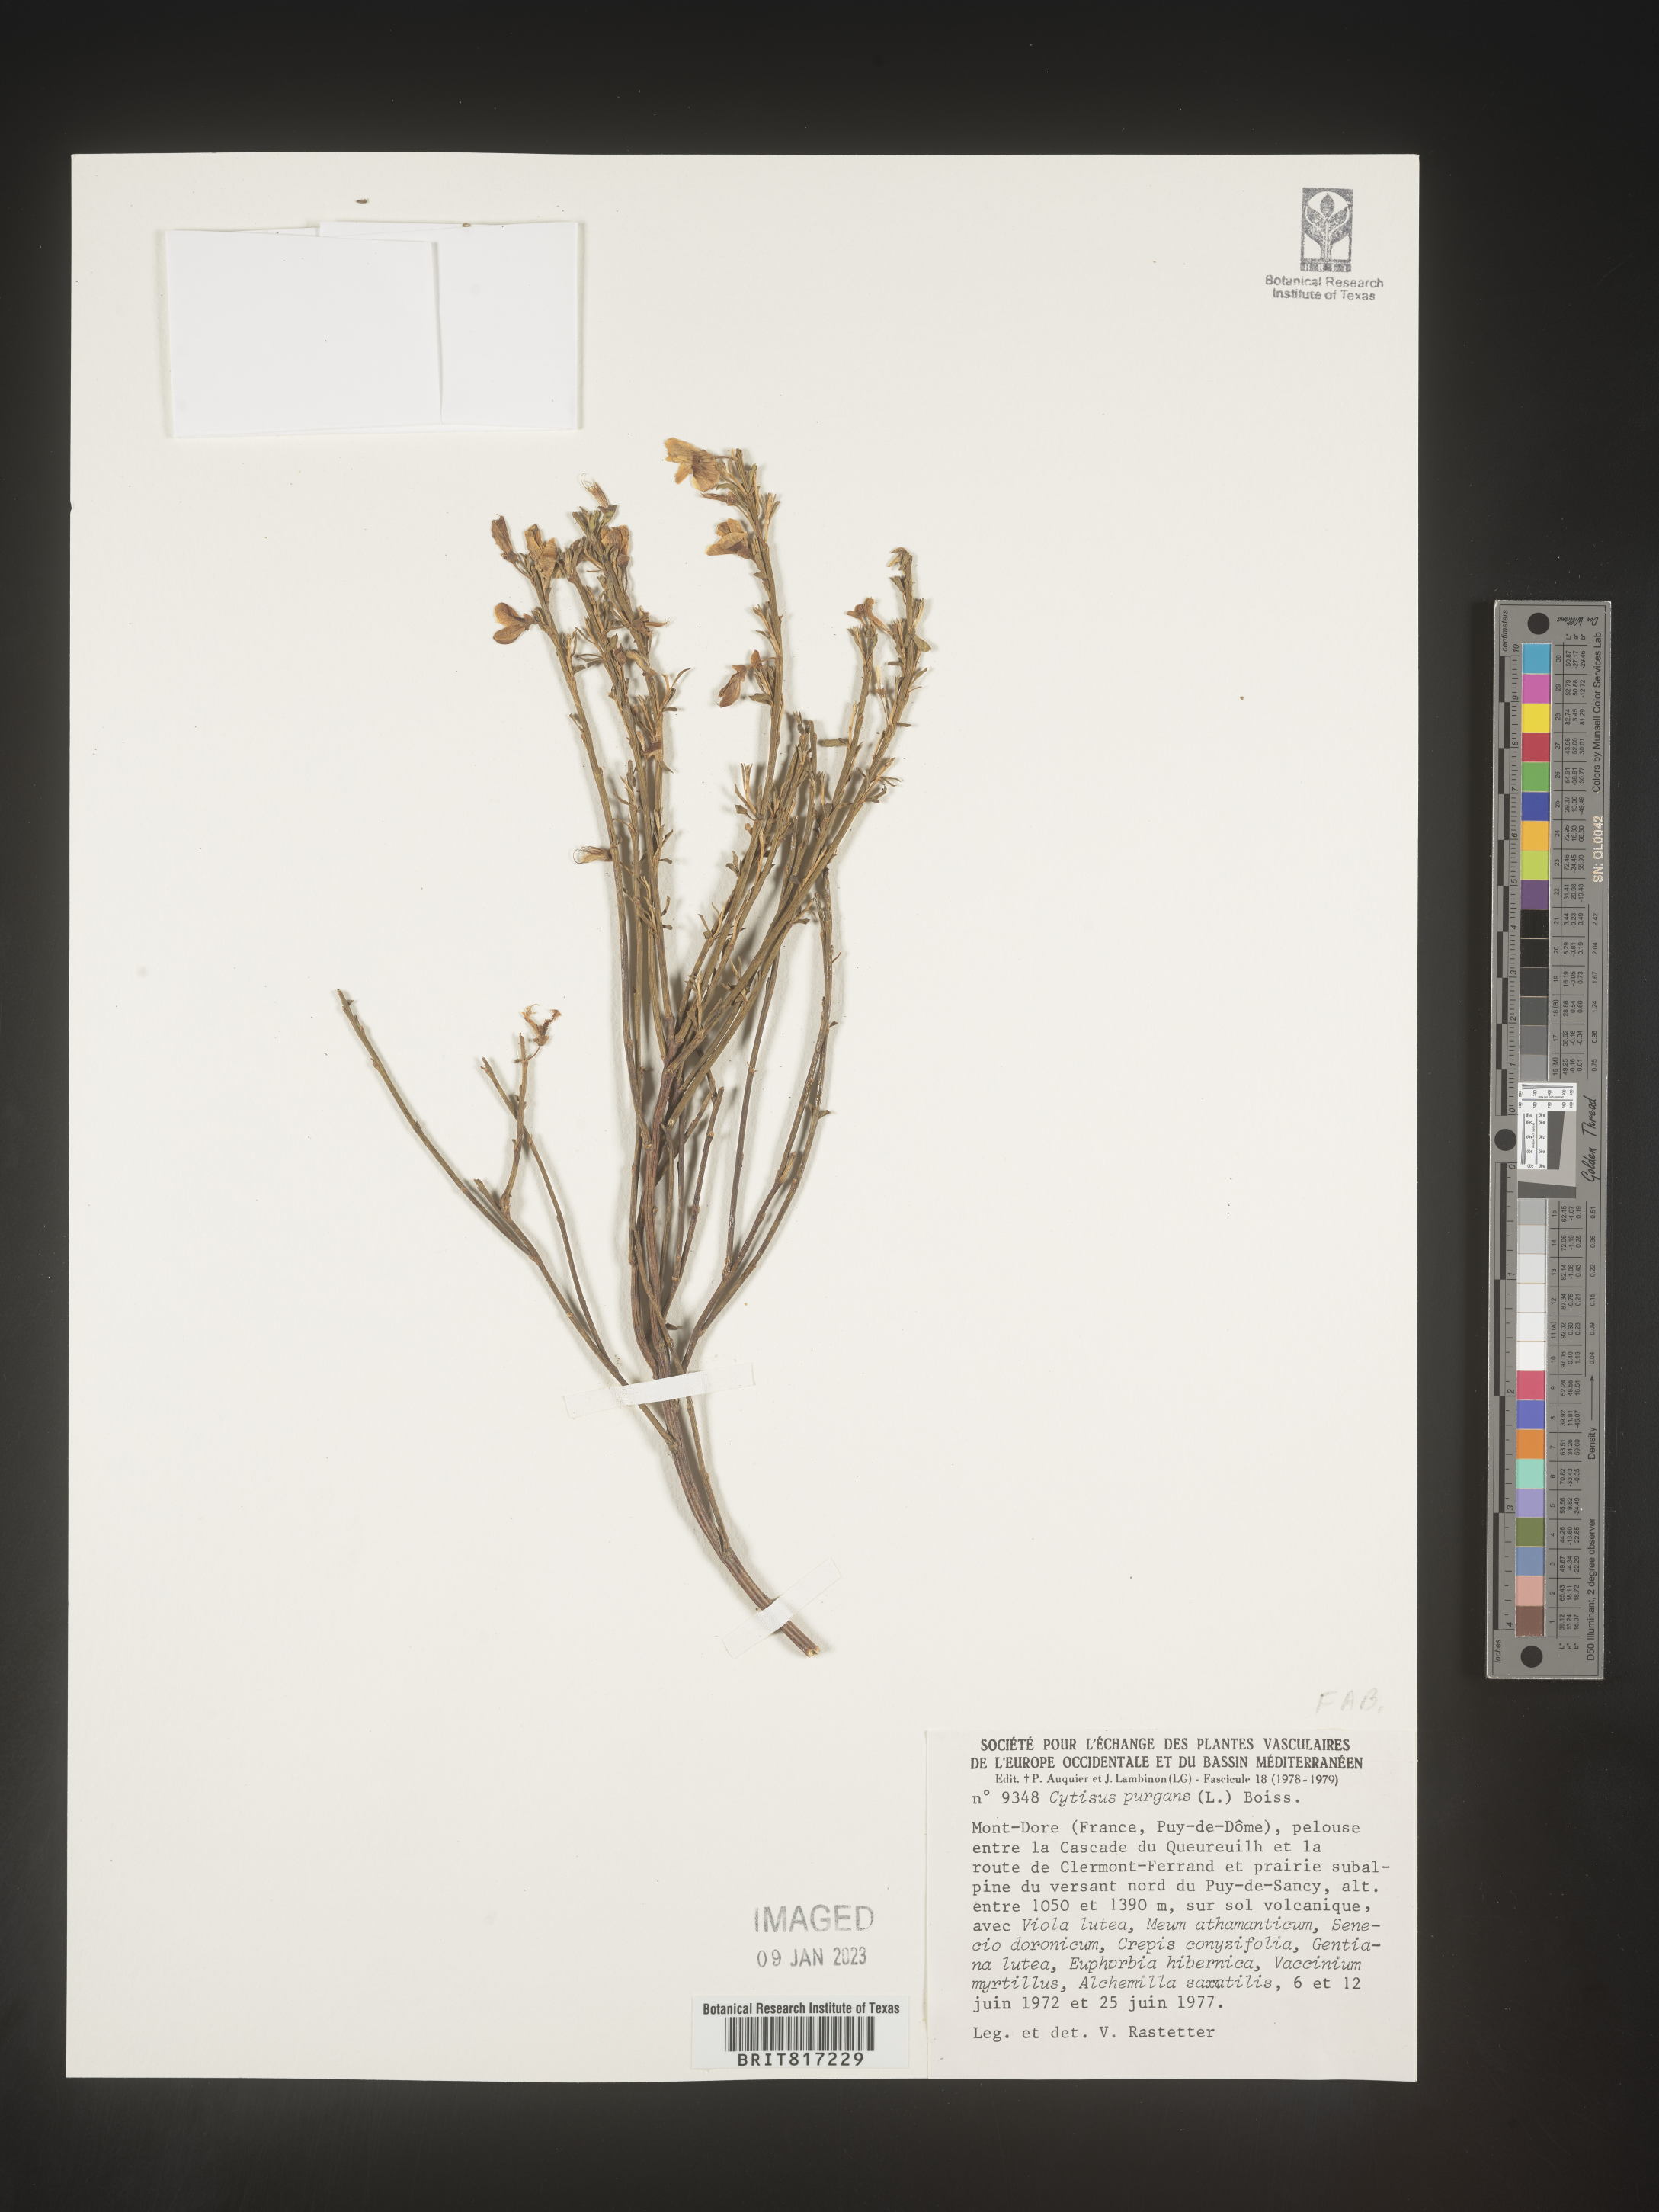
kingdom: Plantae
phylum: Tracheophyta
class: Magnoliopsida
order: Fabales
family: Fabaceae
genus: Cytisus
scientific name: Cytisus
